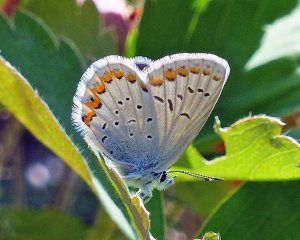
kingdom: Animalia
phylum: Arthropoda
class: Insecta
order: Lepidoptera
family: Lycaenidae
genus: Lycaeides
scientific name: Lycaeides idas
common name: Northern Blue
